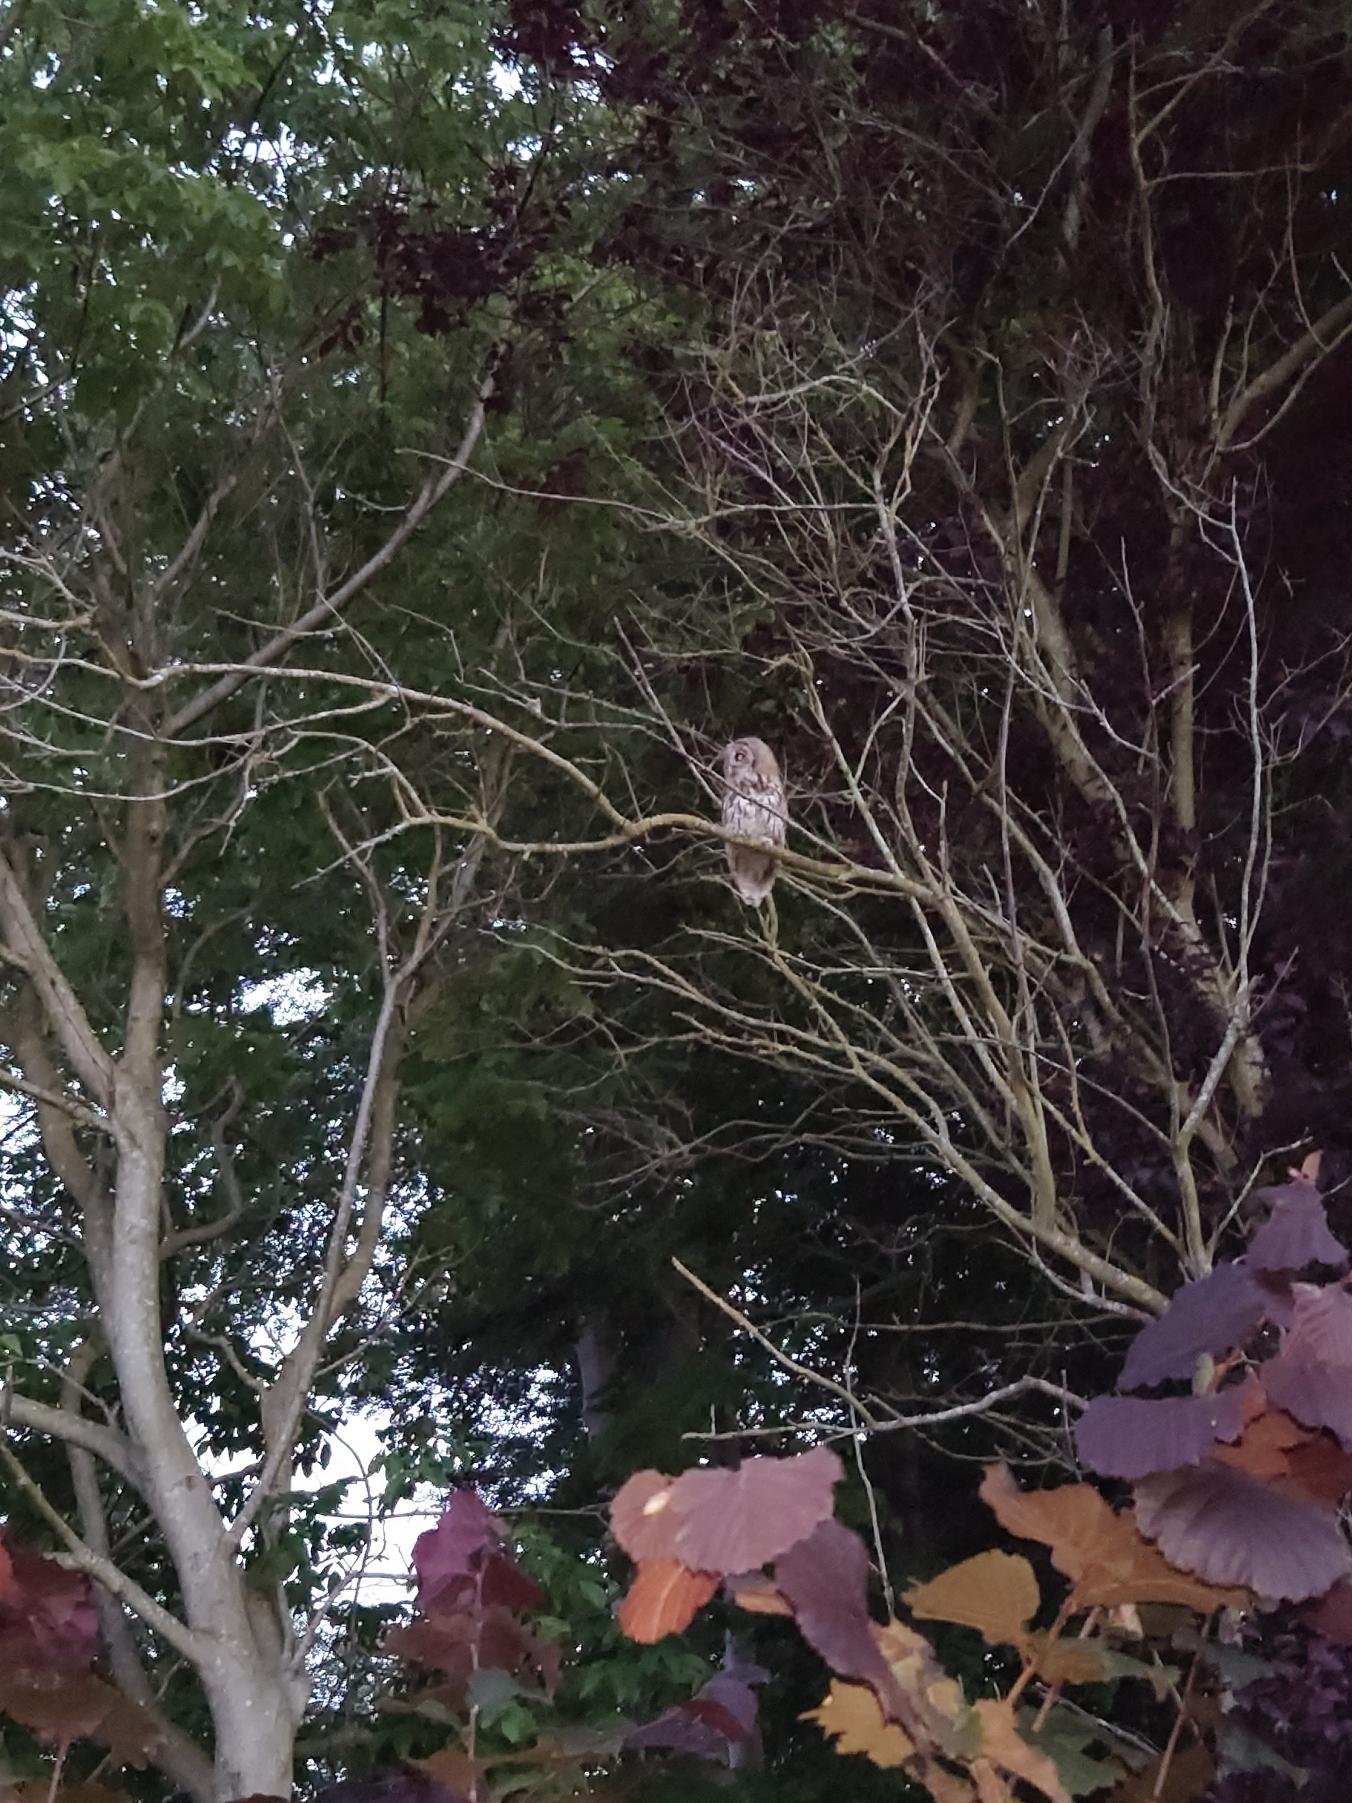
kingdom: Animalia
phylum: Chordata
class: Aves
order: Strigiformes
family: Strigidae
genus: Strix
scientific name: Strix aluco
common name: Natugle
